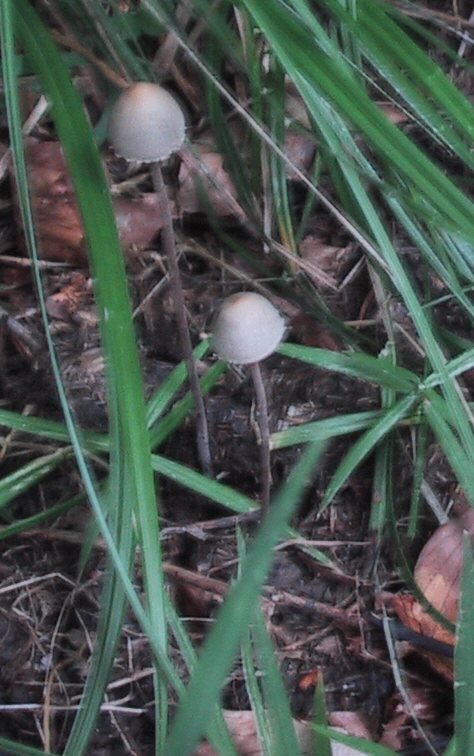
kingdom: Fungi
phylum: Basidiomycota
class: Agaricomycetes
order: Agaricales
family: Bolbitiaceae
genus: Panaeolus
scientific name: Panaeolus papilionaceus
